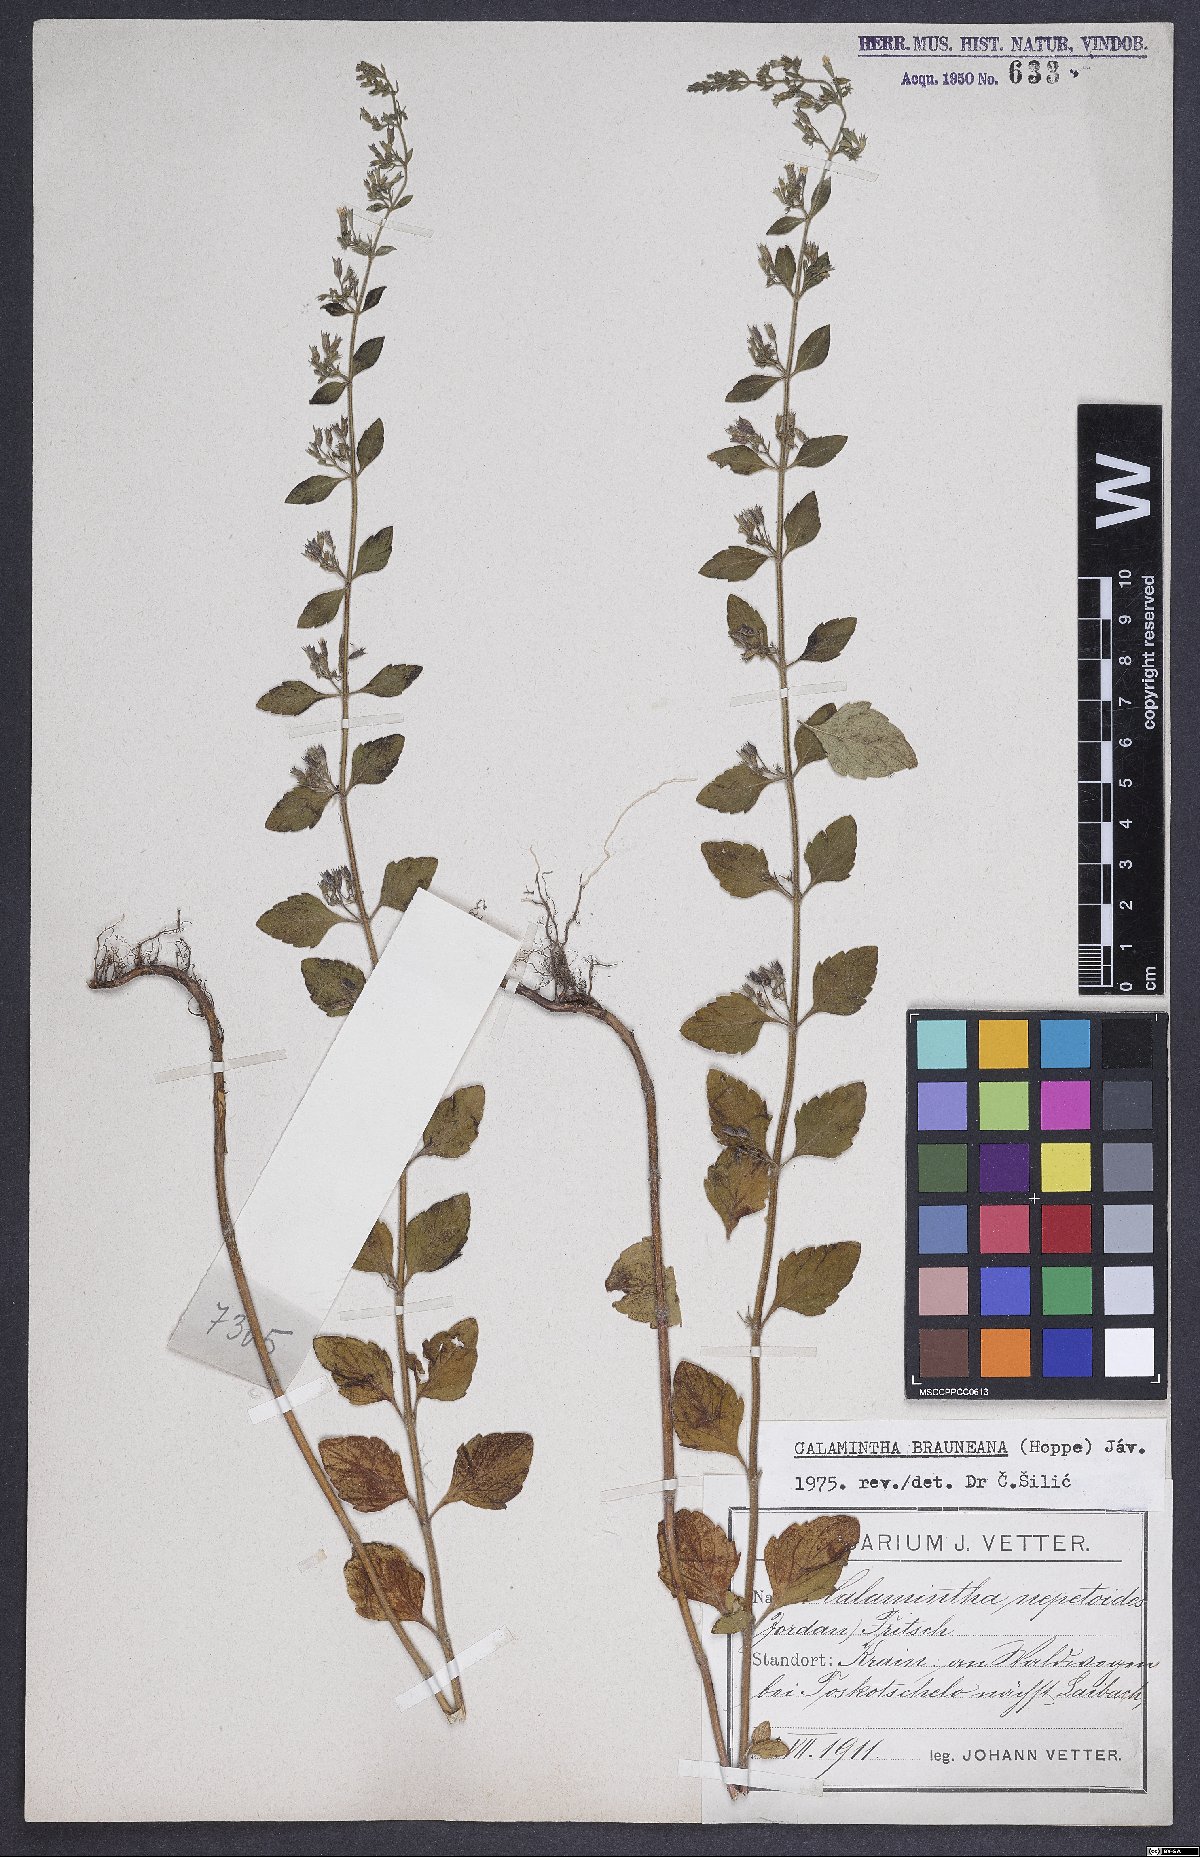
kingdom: Plantae
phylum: Tracheophyta
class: Magnoliopsida
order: Lamiales
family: Lamiaceae
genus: Clinopodium
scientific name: Clinopodium nepeta
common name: Lesser calamint
